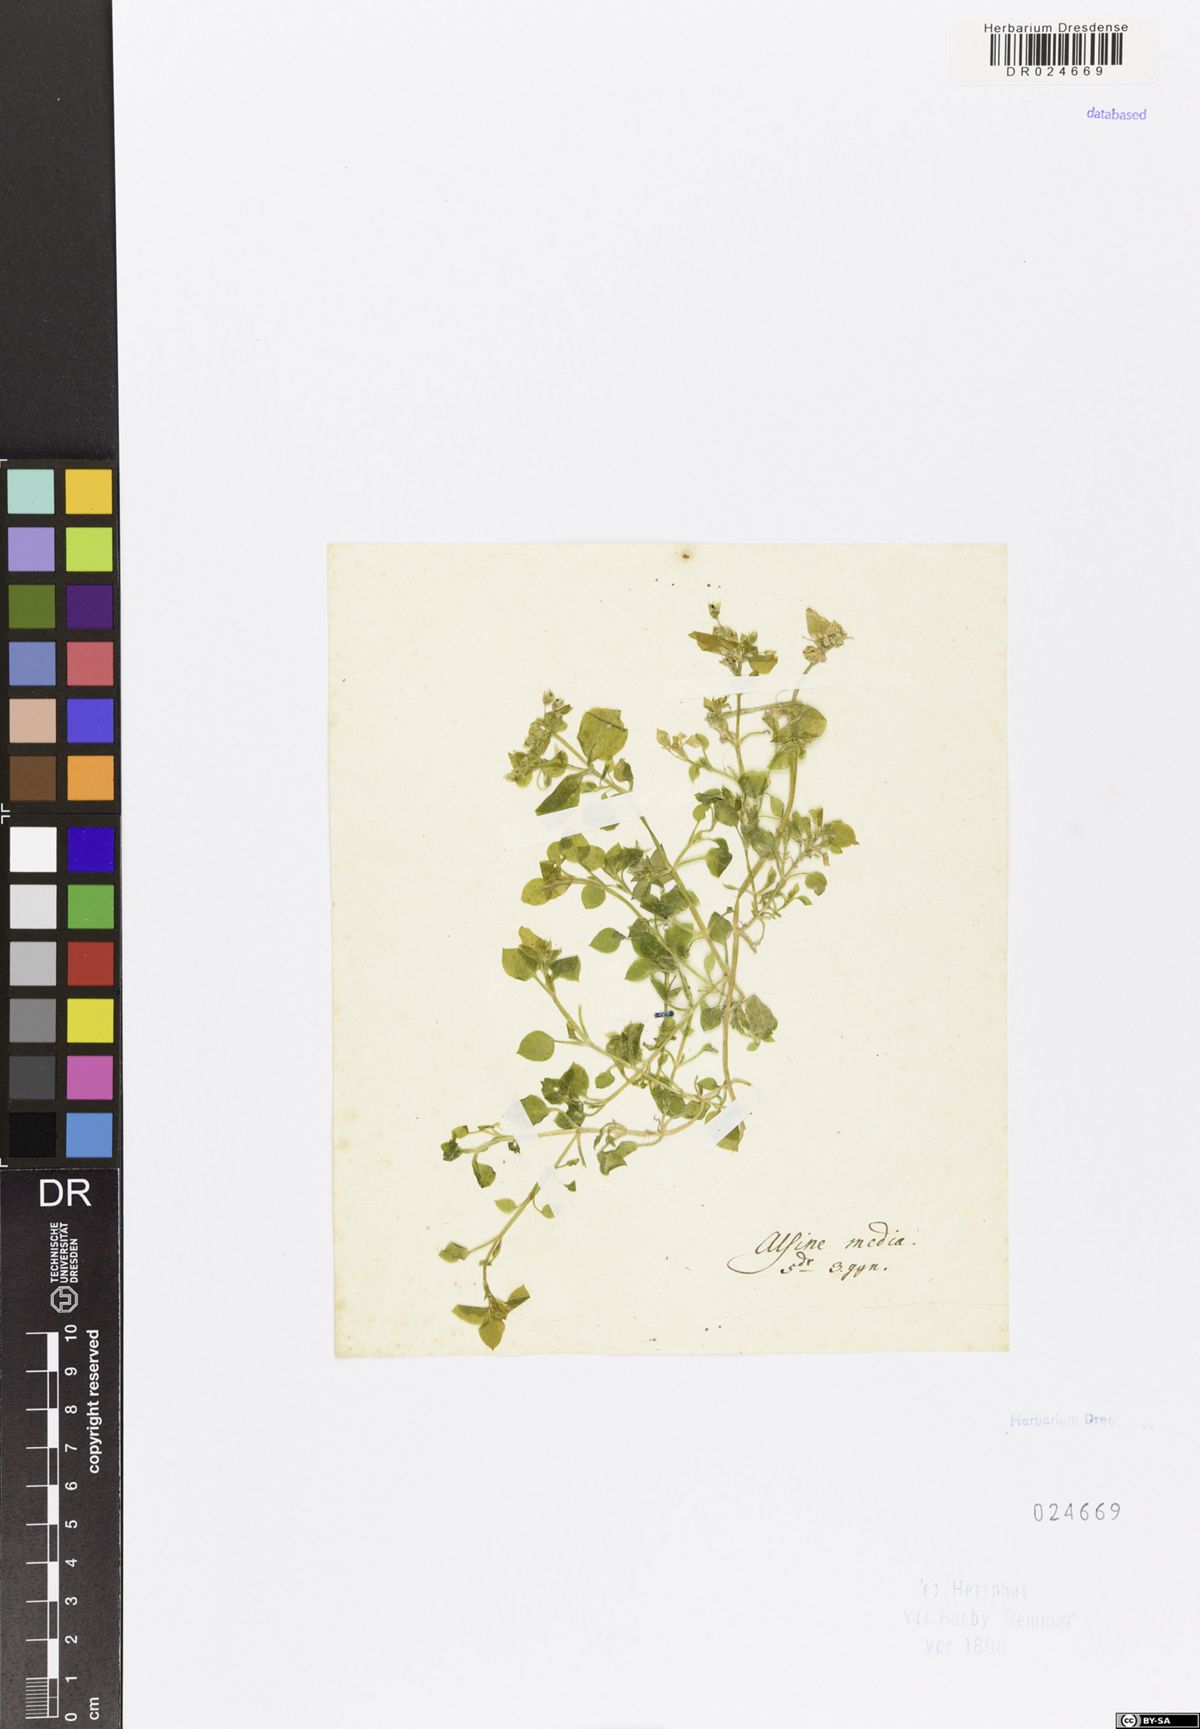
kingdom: Plantae
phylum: Tracheophyta
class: Magnoliopsida
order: Caryophyllales
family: Caryophyllaceae
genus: Stellaria
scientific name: Stellaria media
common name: Common chickweed
